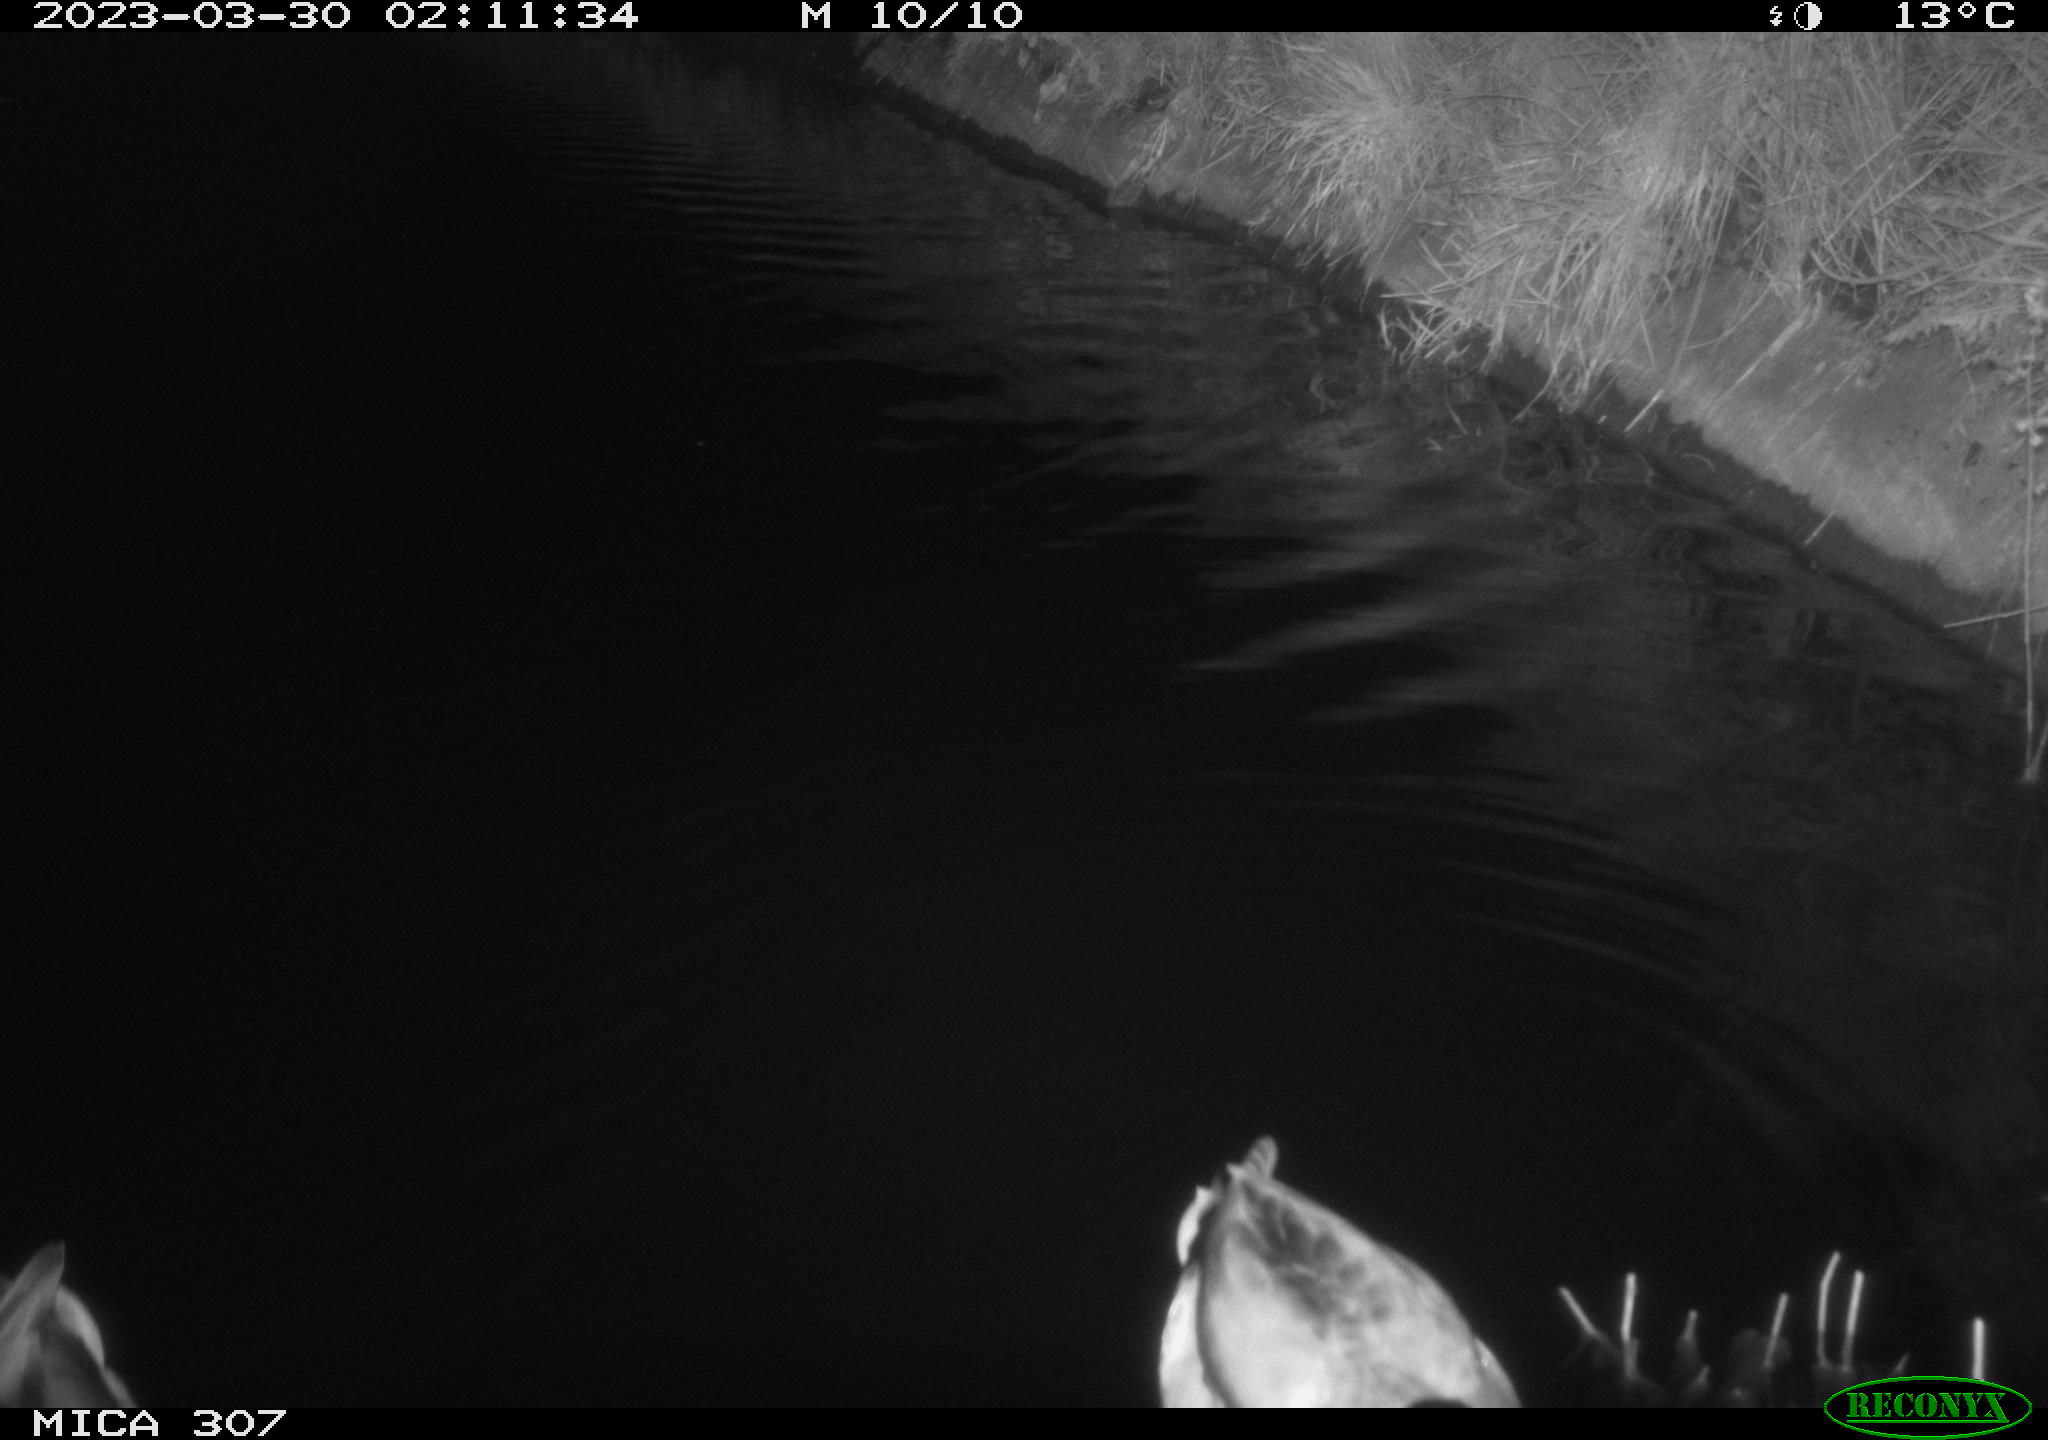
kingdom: Animalia
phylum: Chordata
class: Aves
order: Anseriformes
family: Anatidae
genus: Anas
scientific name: Anas
